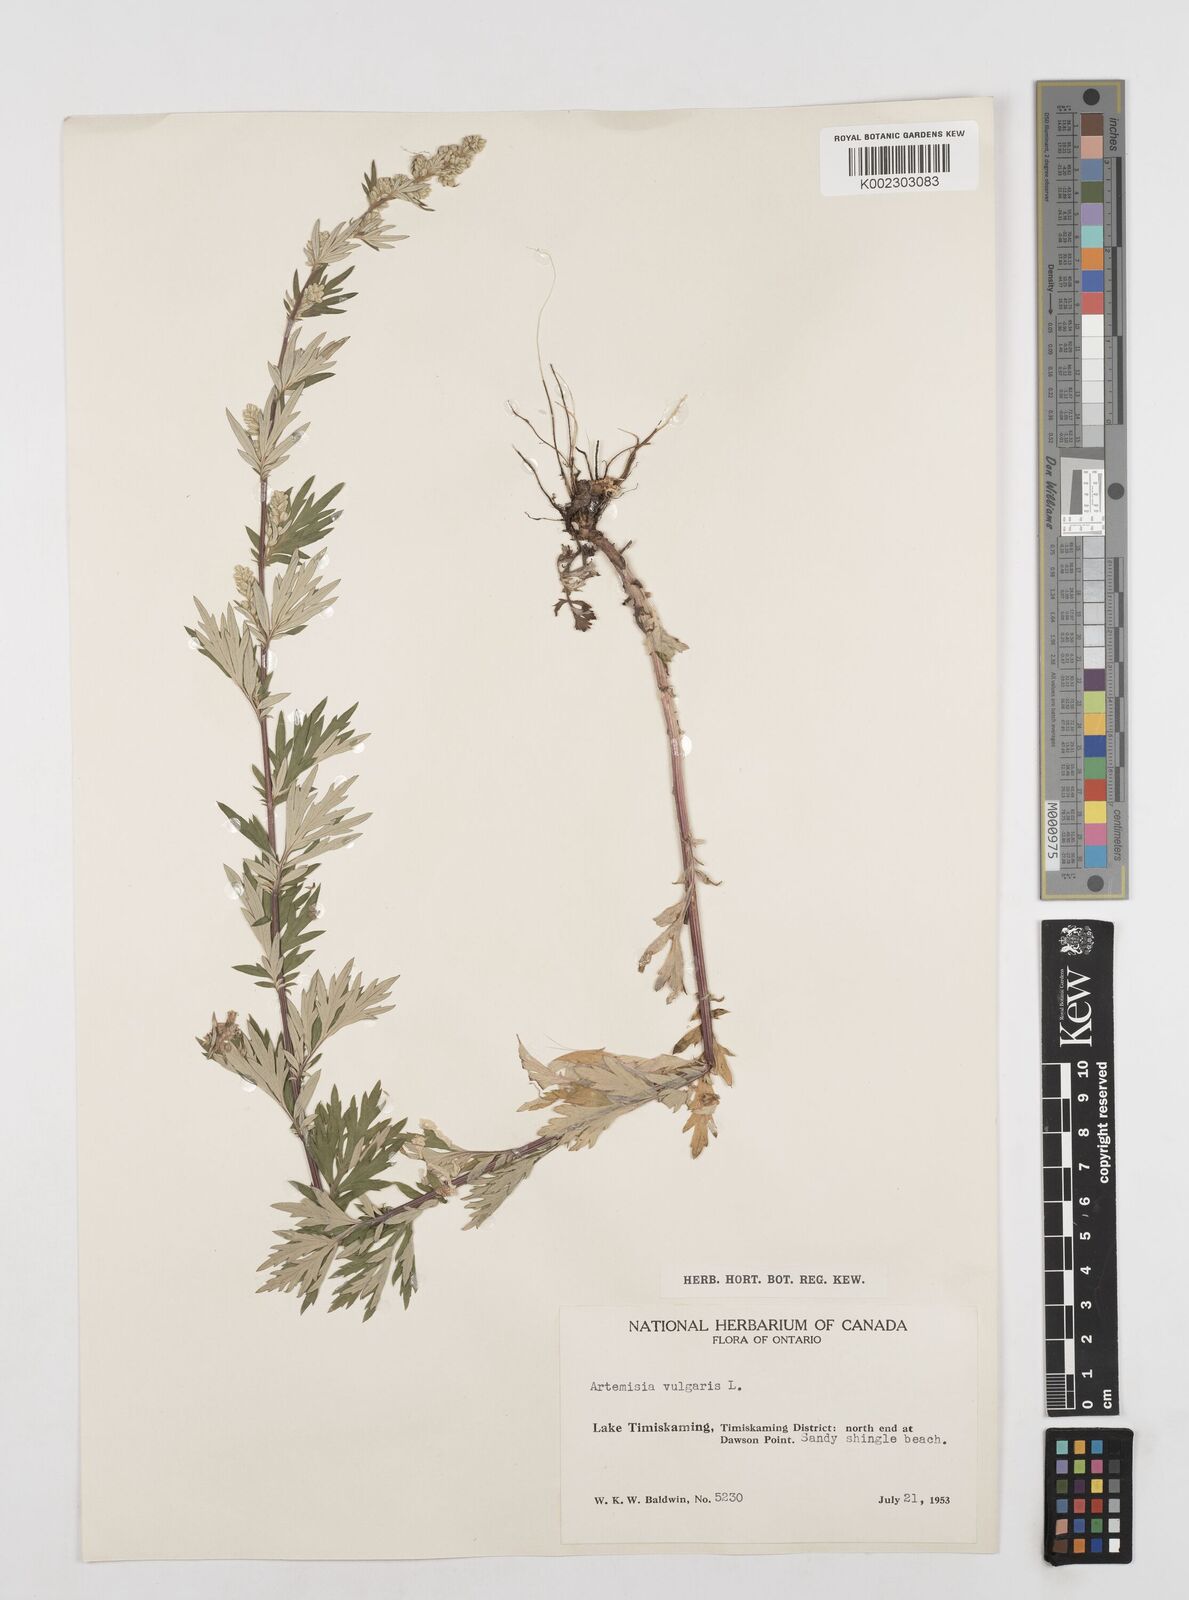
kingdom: Plantae
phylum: Tracheophyta
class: Magnoliopsida
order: Asterales
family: Asteraceae
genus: Artemisia
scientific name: Artemisia vulgaris
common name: Mugwort
